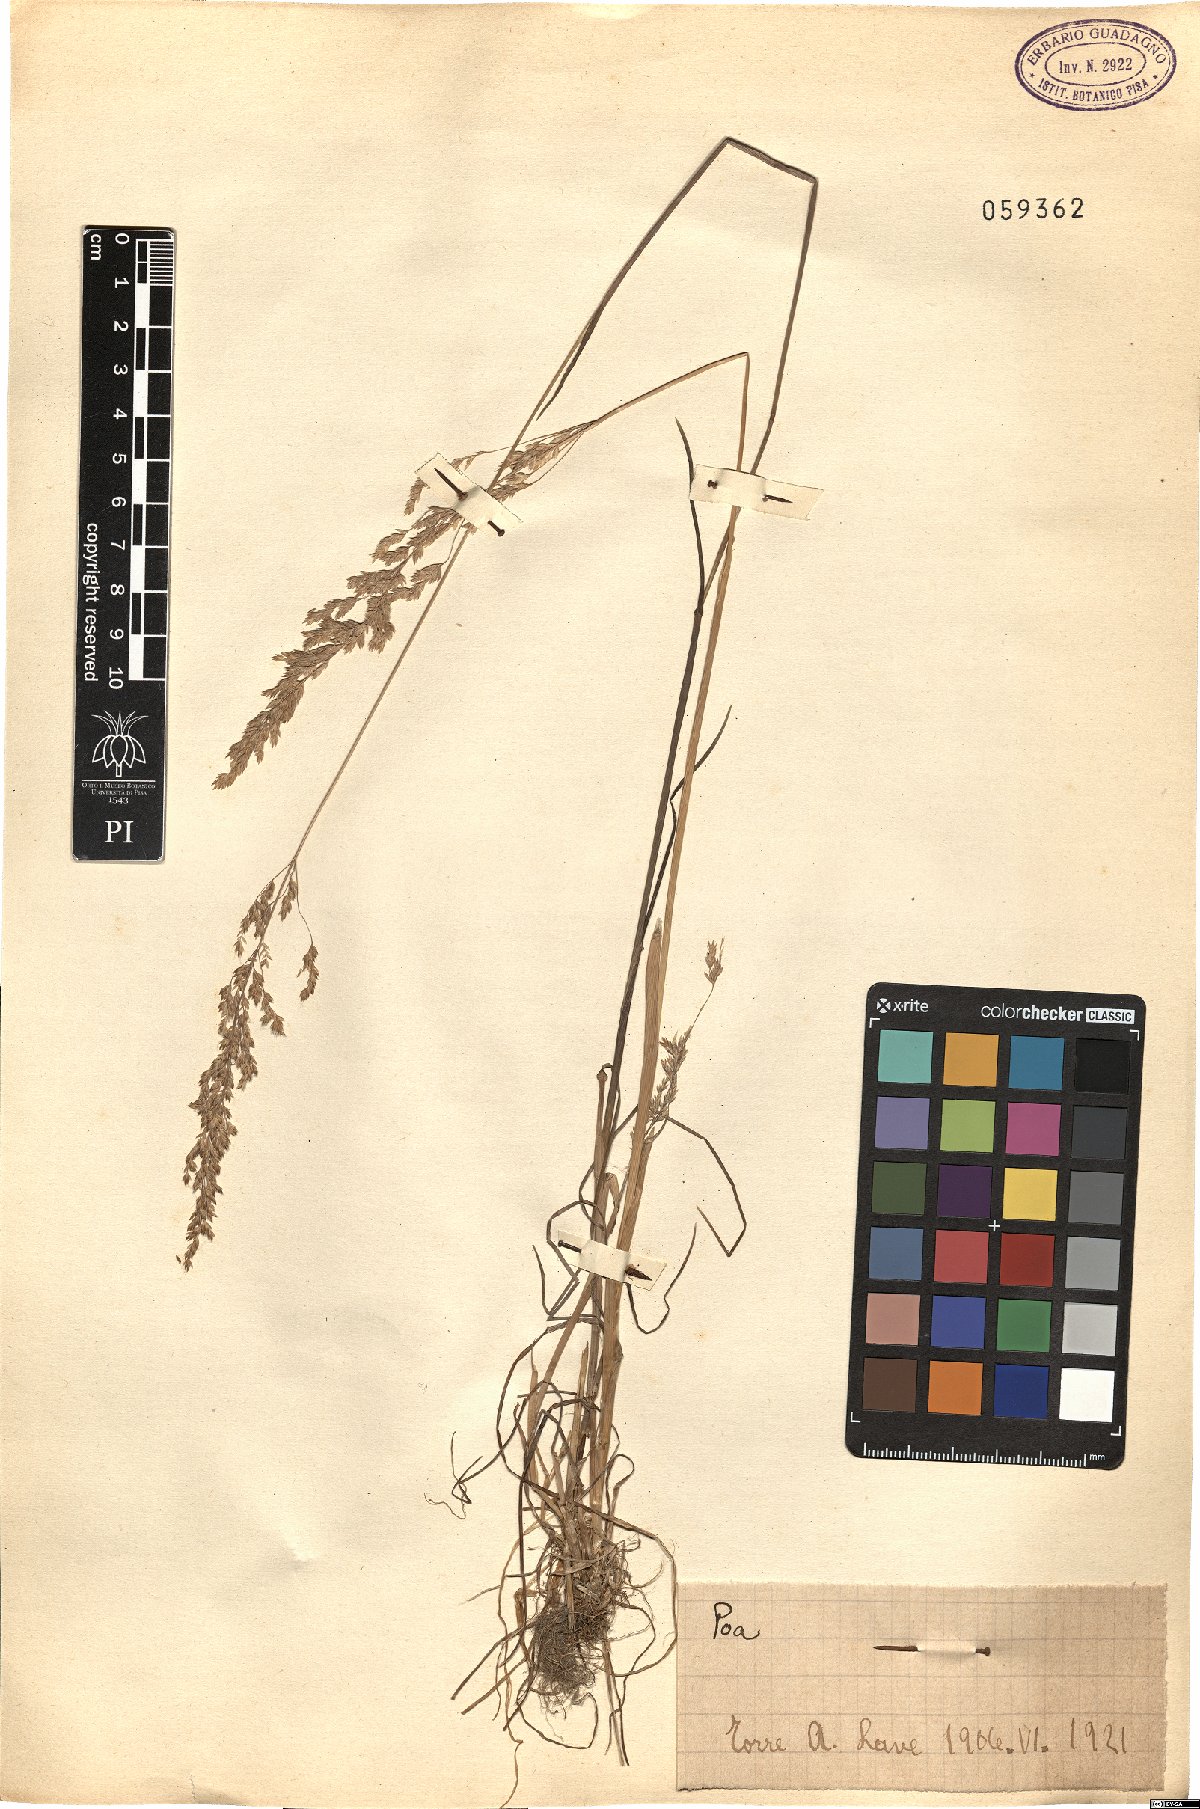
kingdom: Plantae
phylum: Tracheophyta
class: Liliopsida
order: Poales
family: Poaceae
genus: Poa
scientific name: Poa
